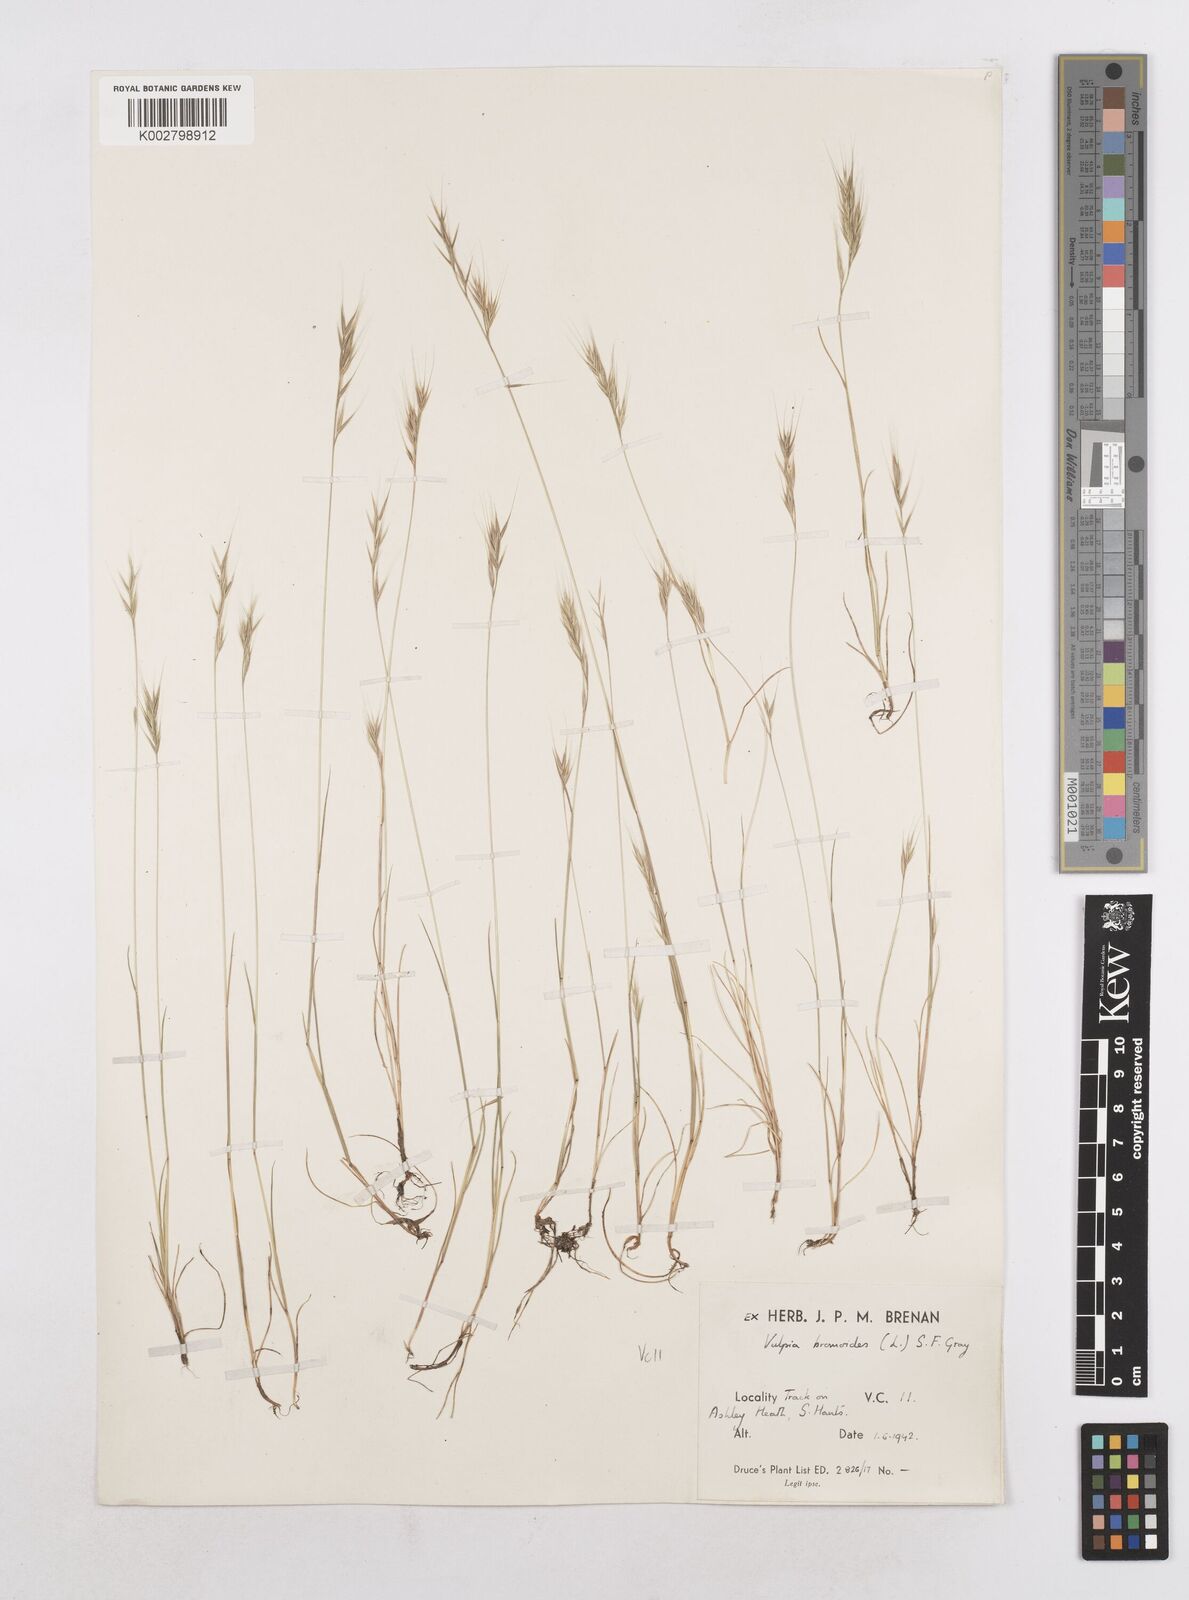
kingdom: Plantae
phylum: Tracheophyta
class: Liliopsida
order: Poales
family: Poaceae
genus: Festuca
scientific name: Festuca bromoides
